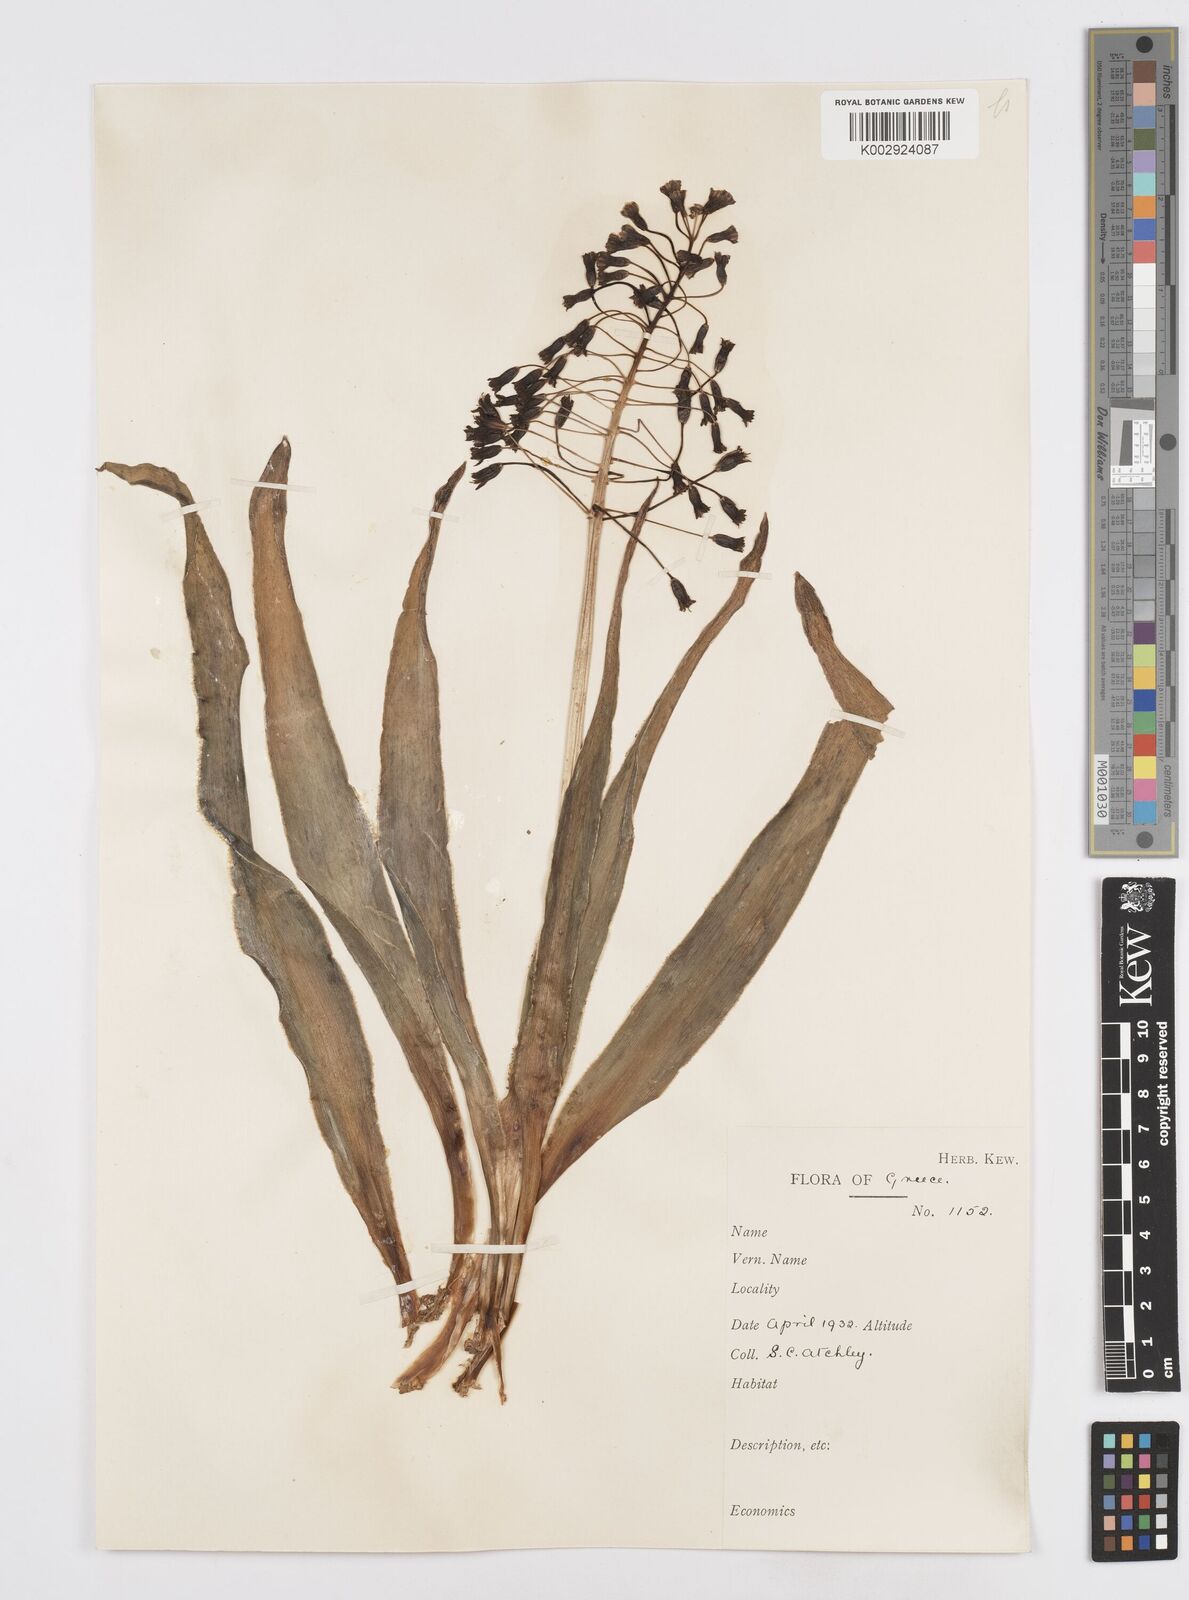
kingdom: Plantae
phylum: Tracheophyta
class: Liliopsida
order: Asparagales
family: Asparagaceae
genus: Bellevalia
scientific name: Bellevalia ciliata
